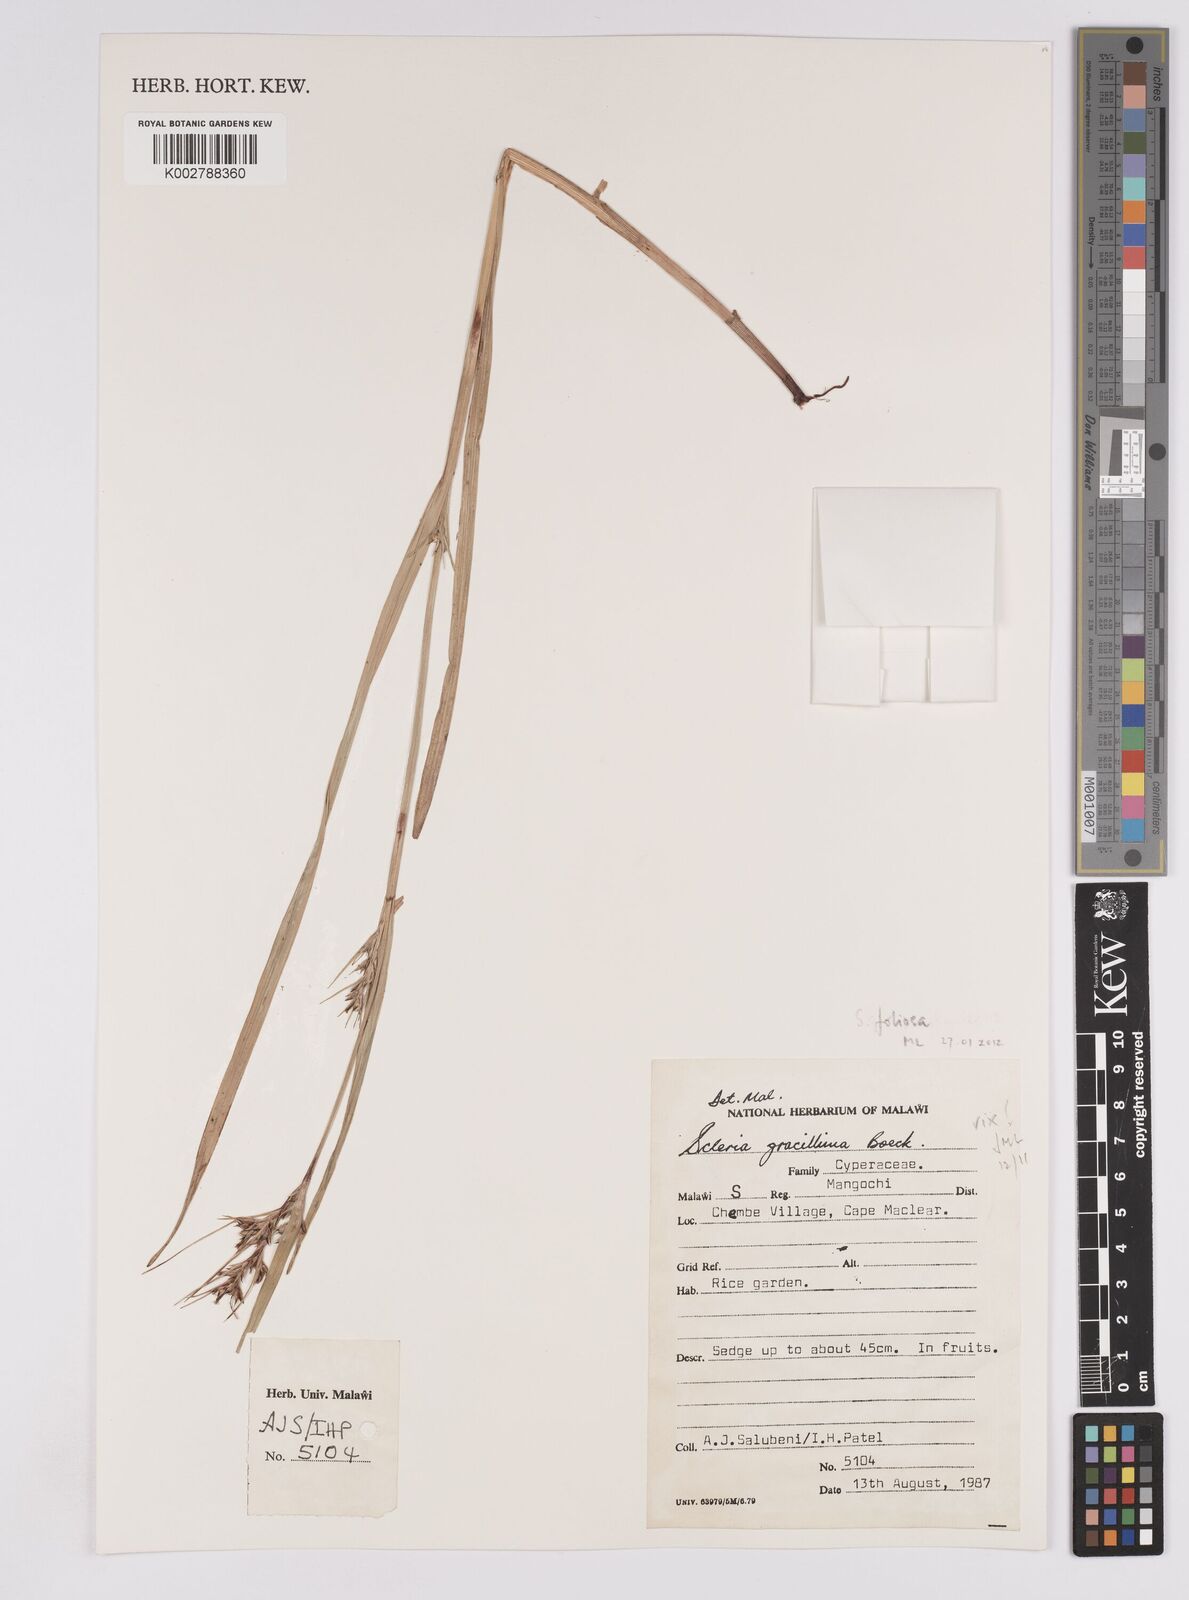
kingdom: Plantae
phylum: Tracheophyta
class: Liliopsida
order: Poales
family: Cyperaceae
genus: Scleria
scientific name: Scleria gracillima
